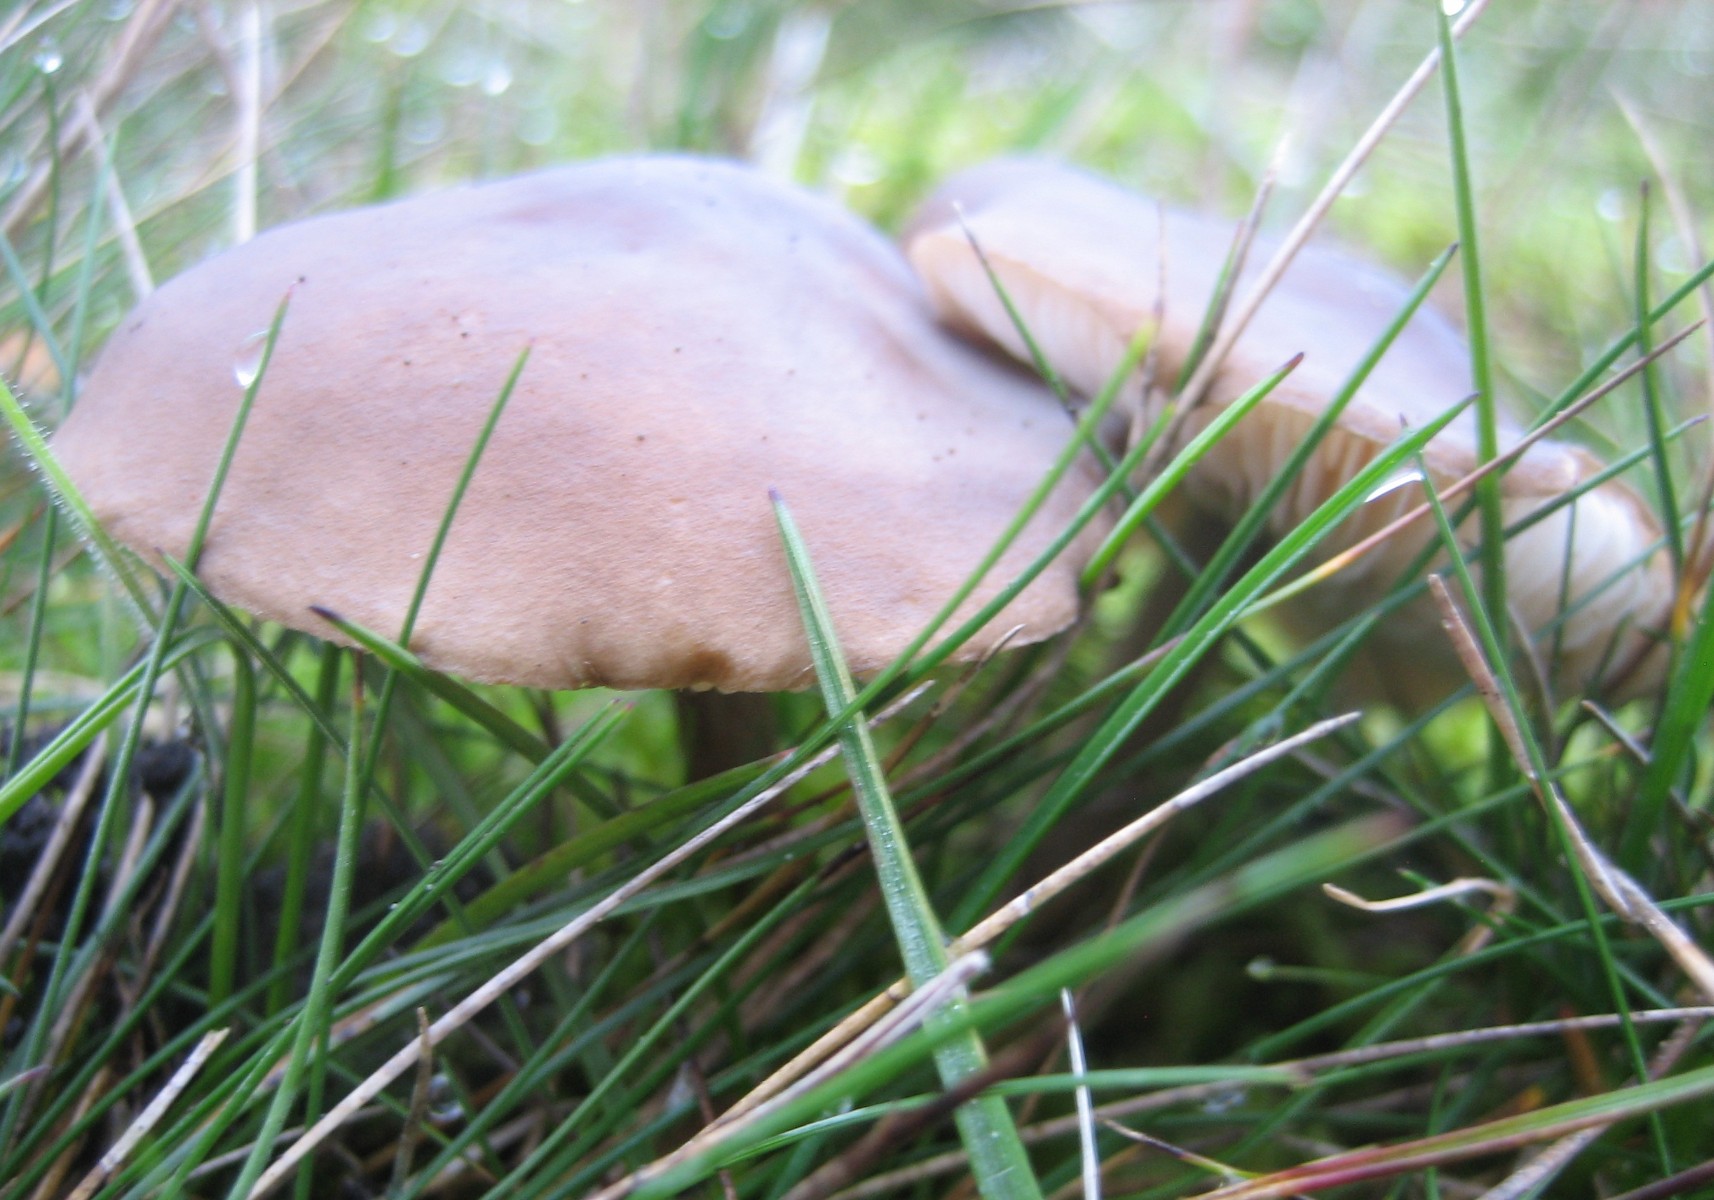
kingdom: Fungi
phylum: Basidiomycota
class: Agaricomycetes
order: Agaricales
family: Tricholomataceae
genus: Melanoleuca
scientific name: Melanoleuca
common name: munkehat
